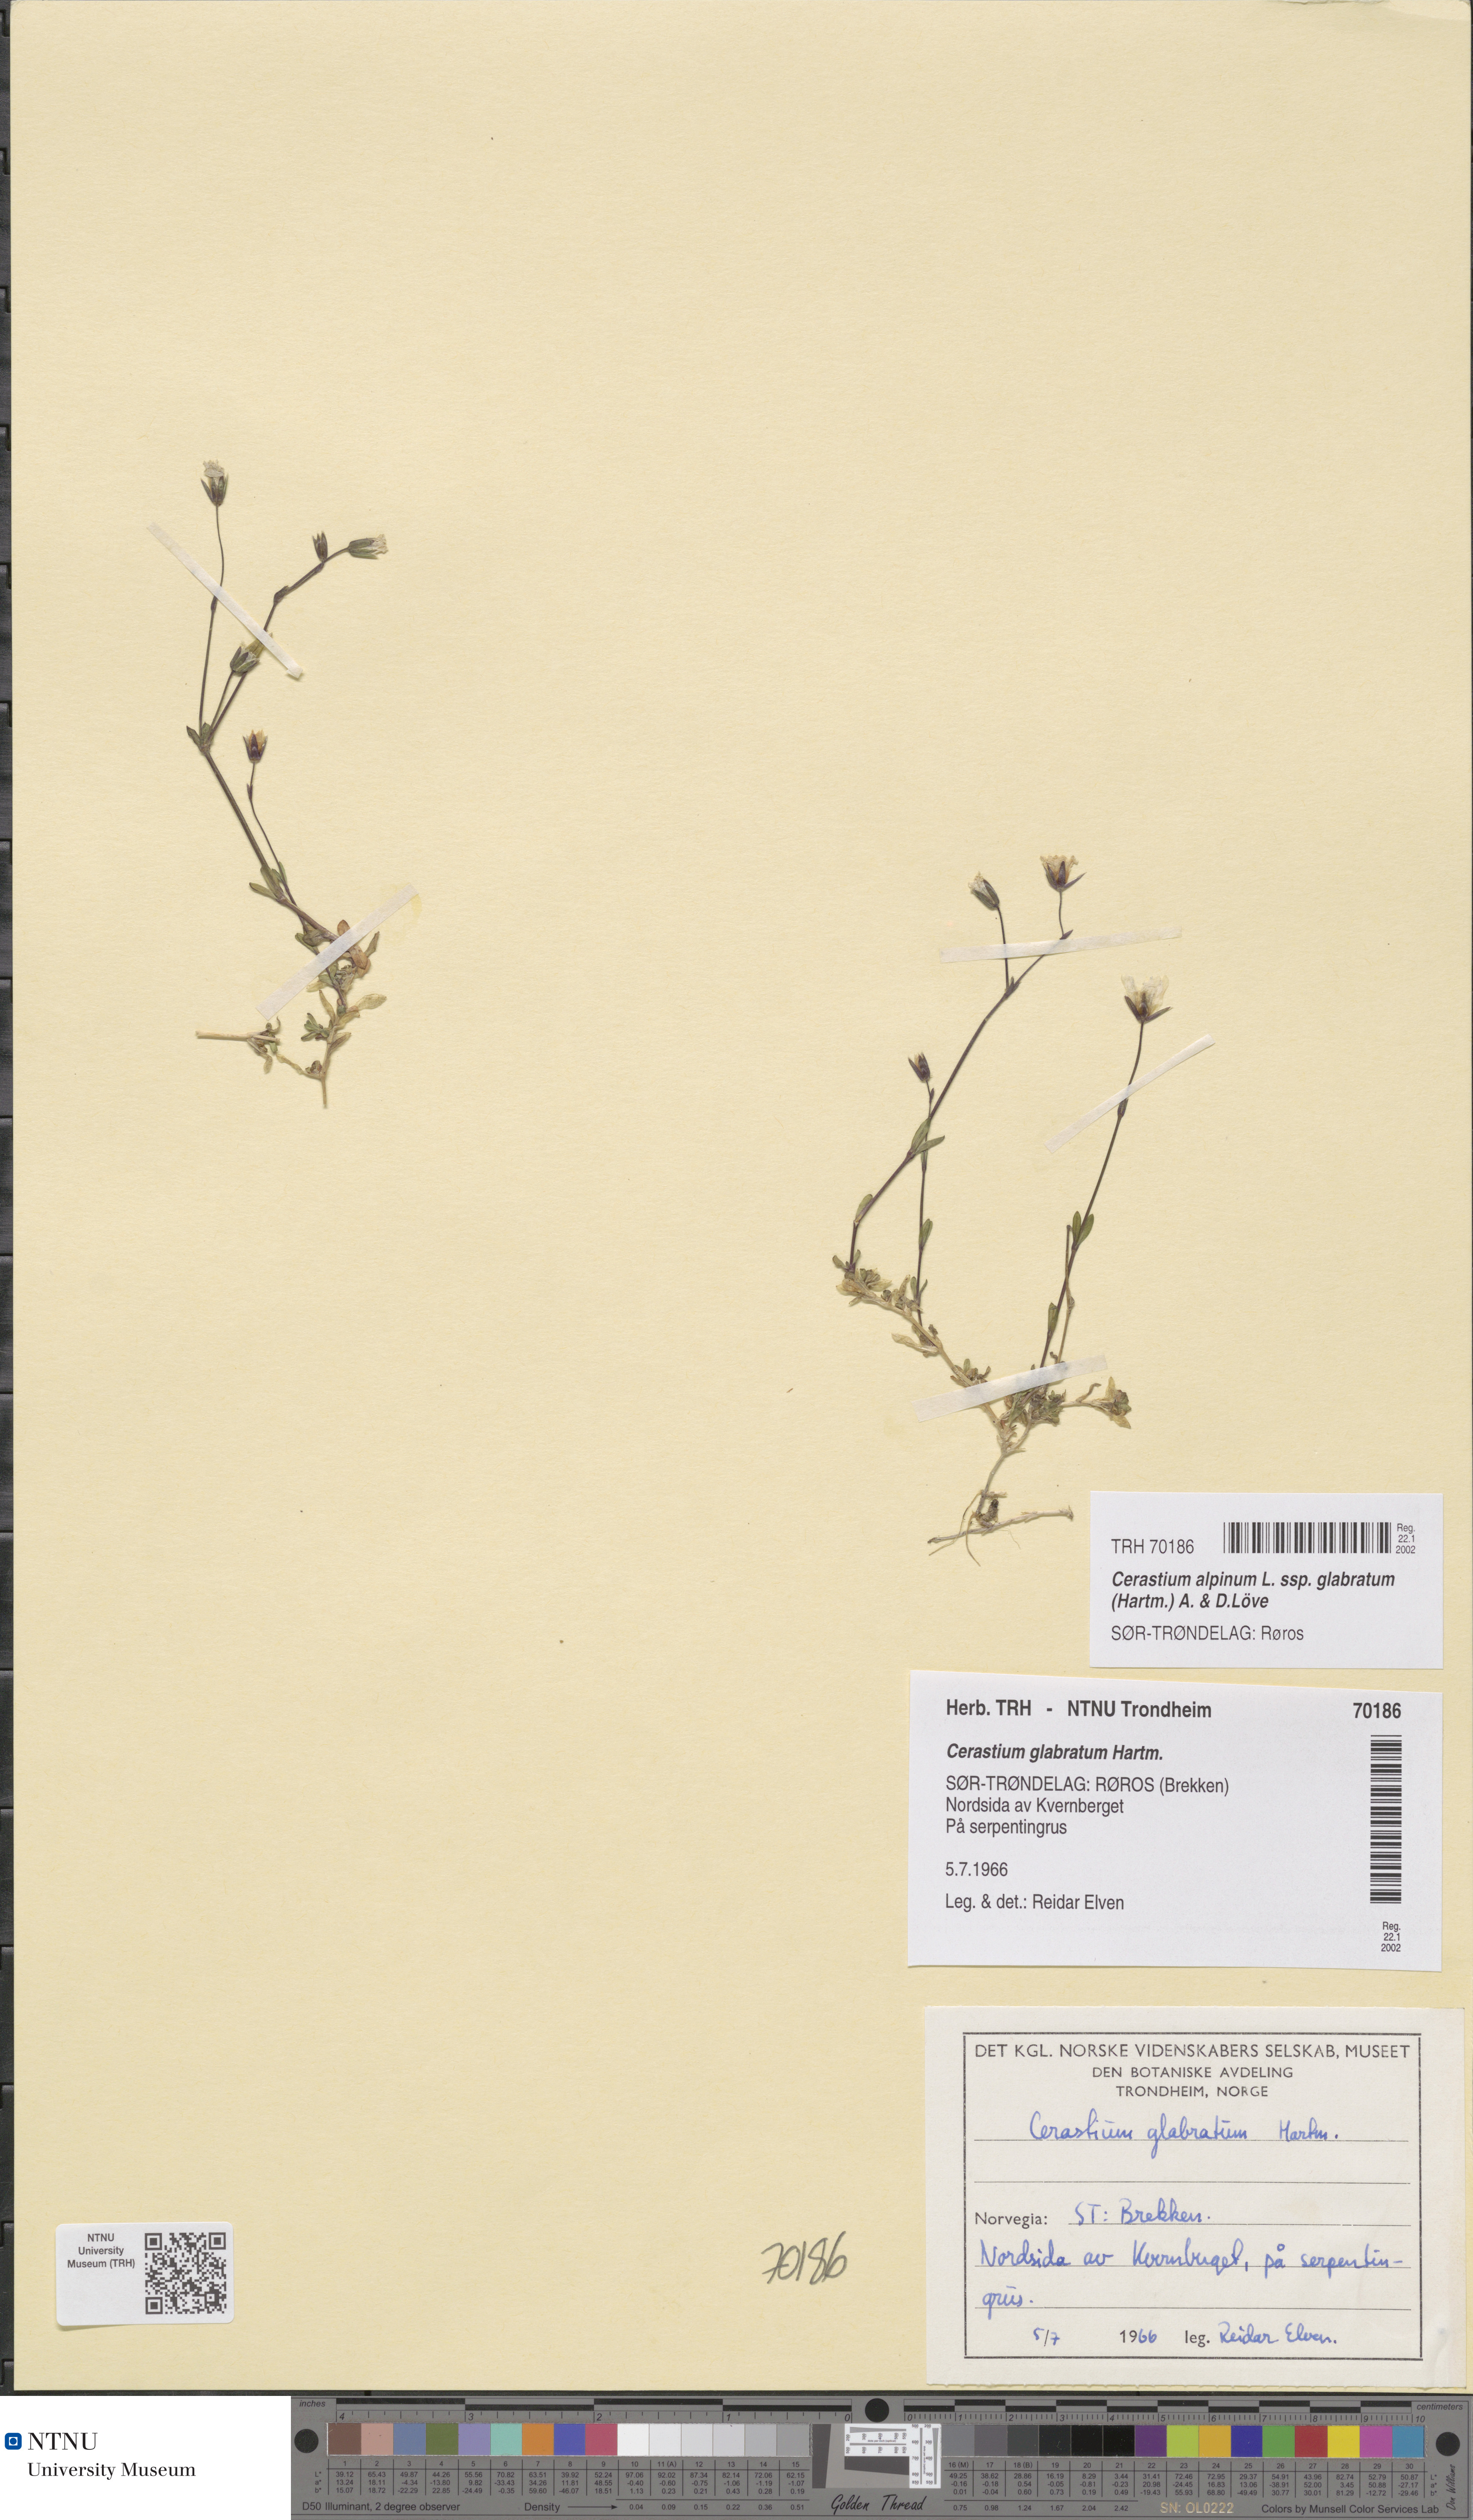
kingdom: Plantae
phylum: Tracheophyta
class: Magnoliopsida
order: Caryophyllales
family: Caryophyllaceae
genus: Cerastium
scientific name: Cerastium alpinum
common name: Alpine mouse-ear
